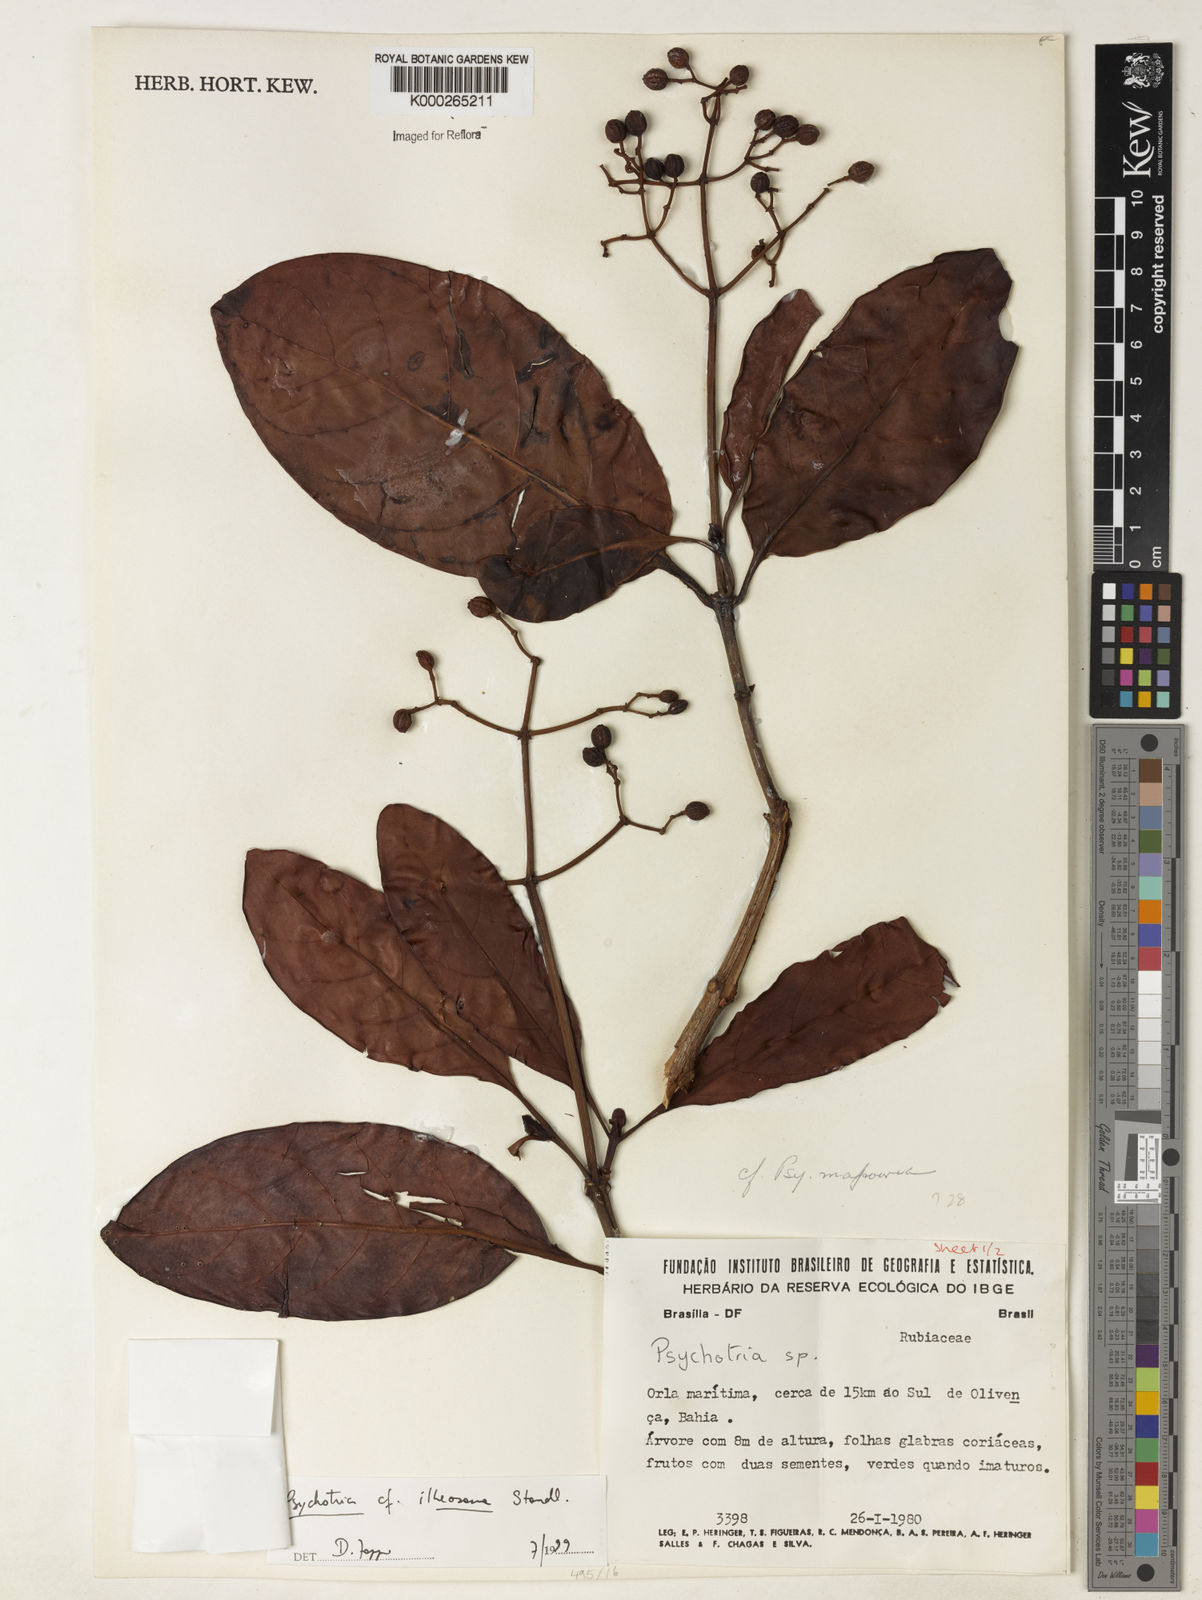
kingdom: Plantae
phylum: Tracheophyta
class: Magnoliopsida
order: Gentianales
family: Rubiaceae
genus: Psychotria
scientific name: Psychotria carthagenensis
